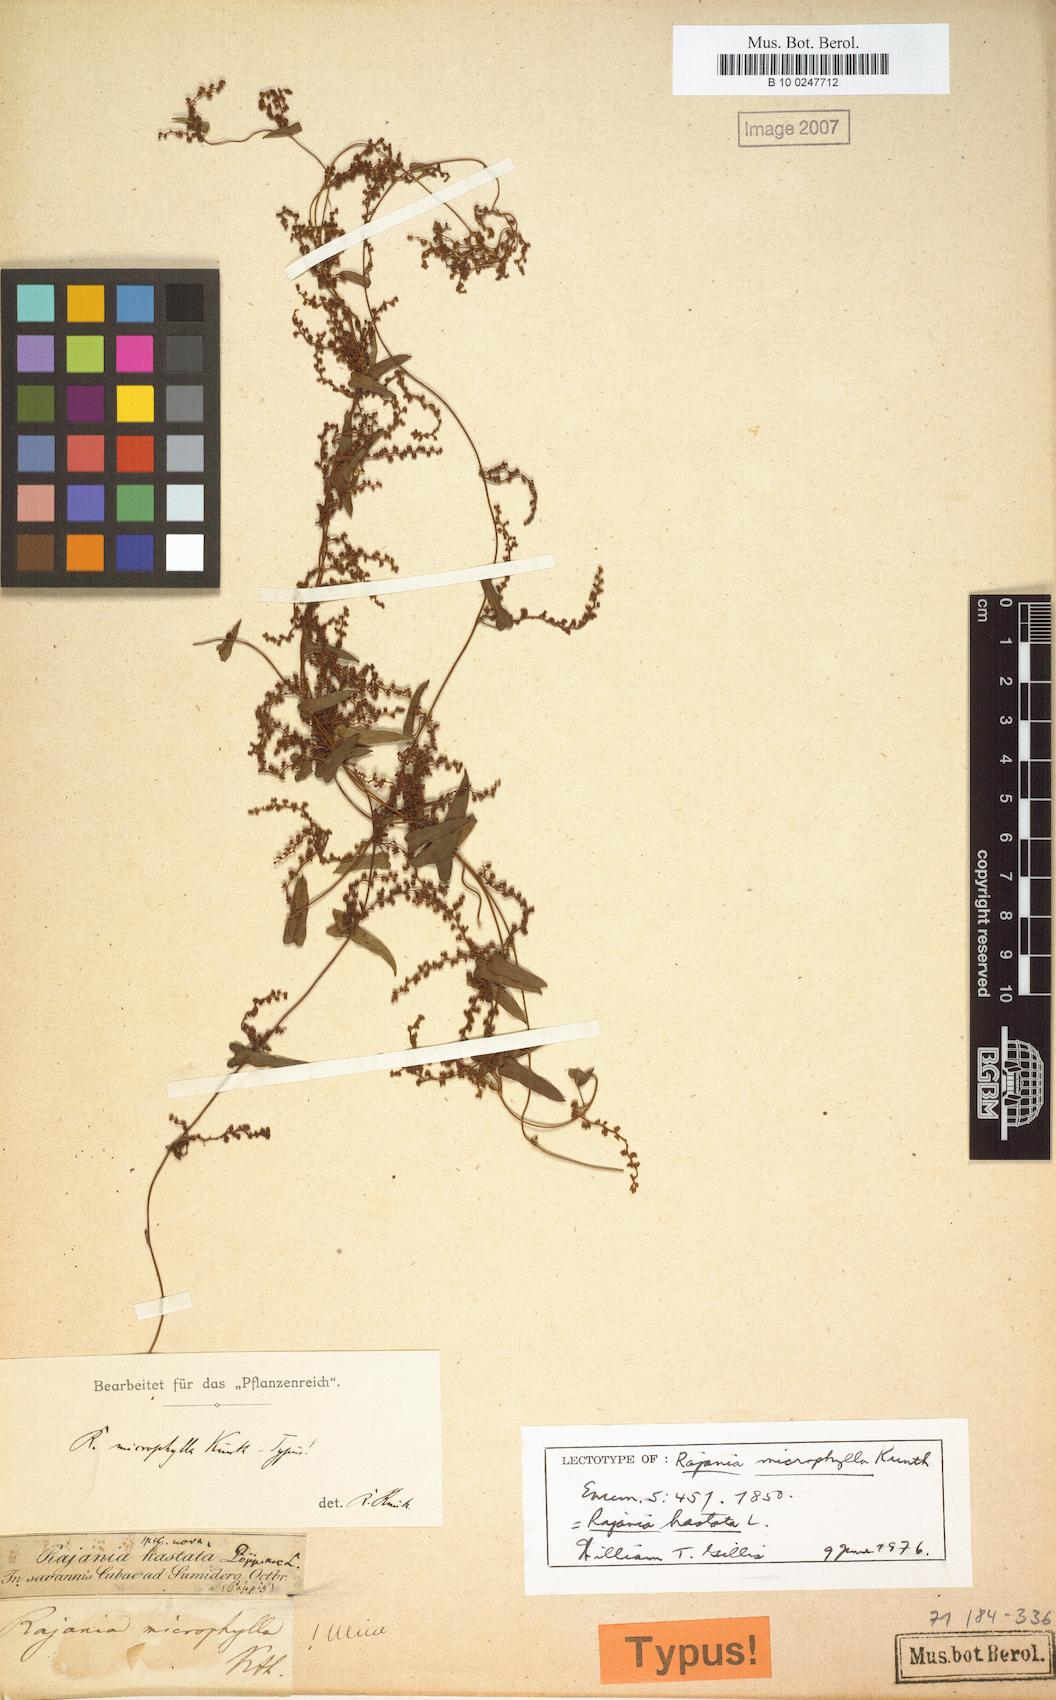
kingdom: Plantae
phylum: Tracheophyta
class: Liliopsida
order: Dioscoreales
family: Dioscoreaceae
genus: Dioscorea
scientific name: Dioscorea alainii
